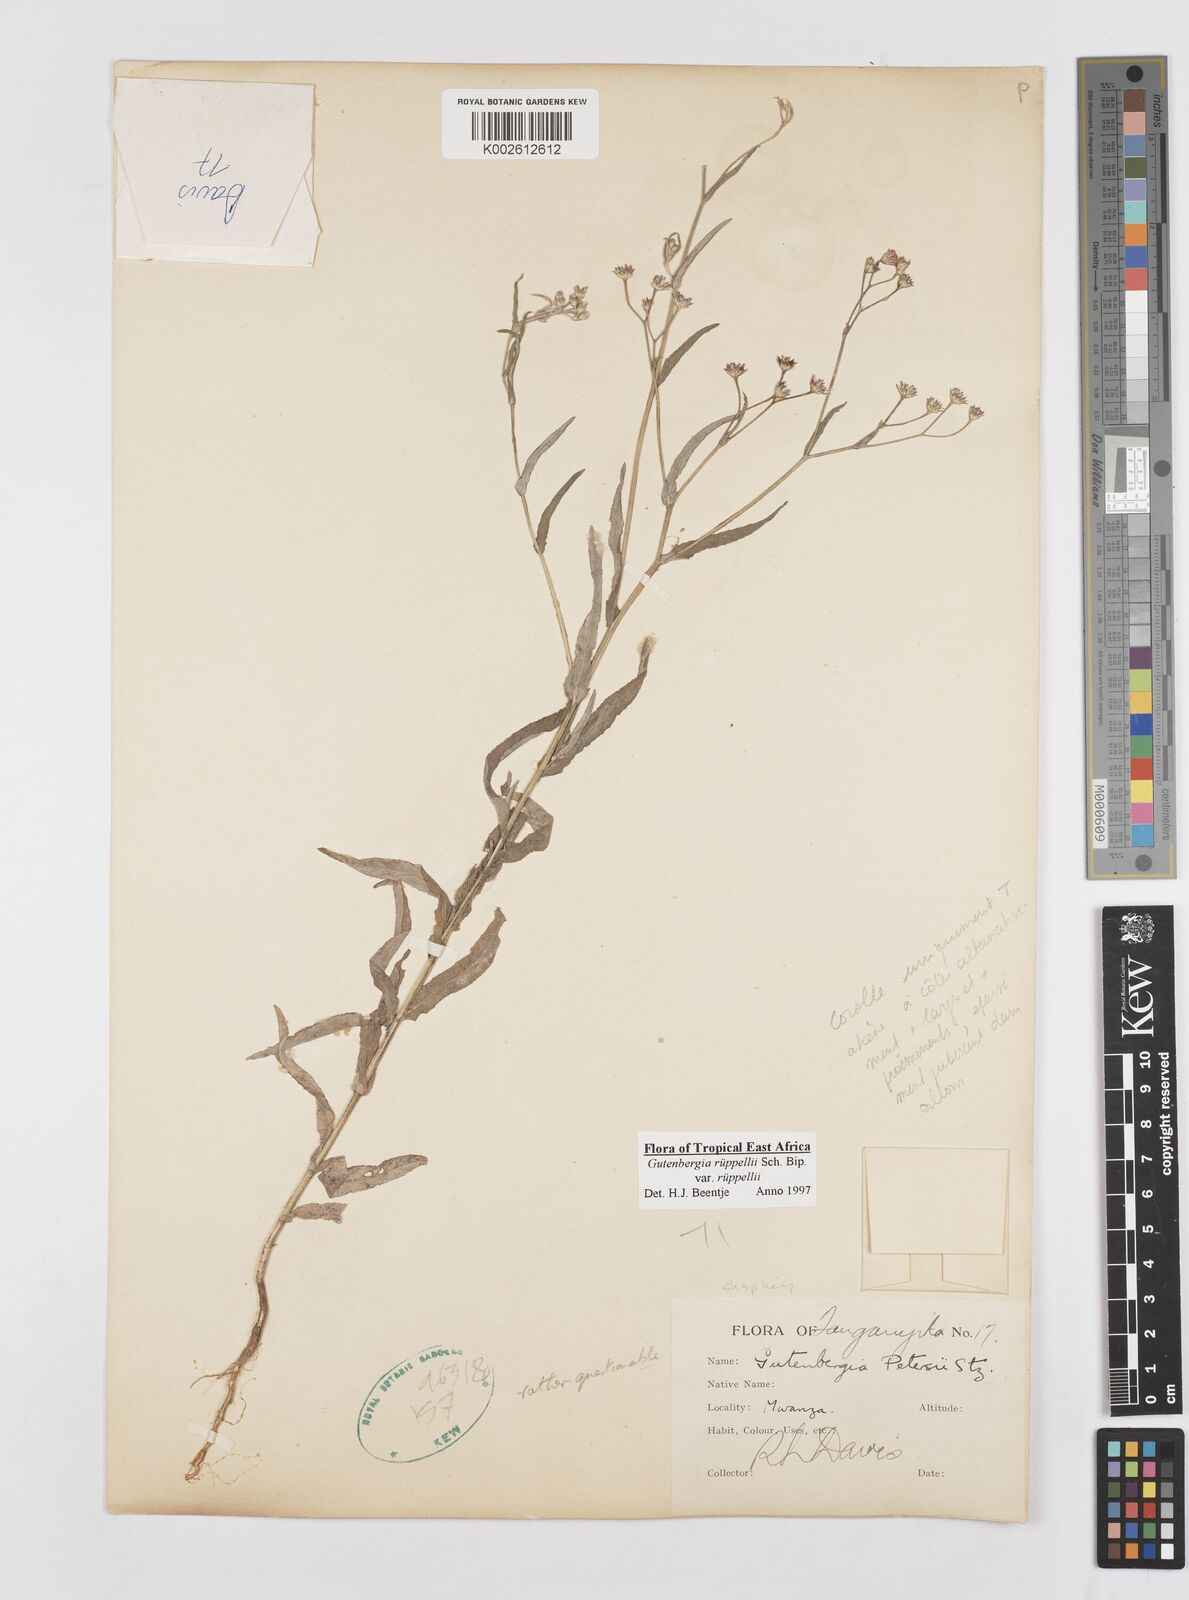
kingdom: Plantae
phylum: Tracheophyta
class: Magnoliopsida
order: Asterales
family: Asteraceae
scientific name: Asteraceae
